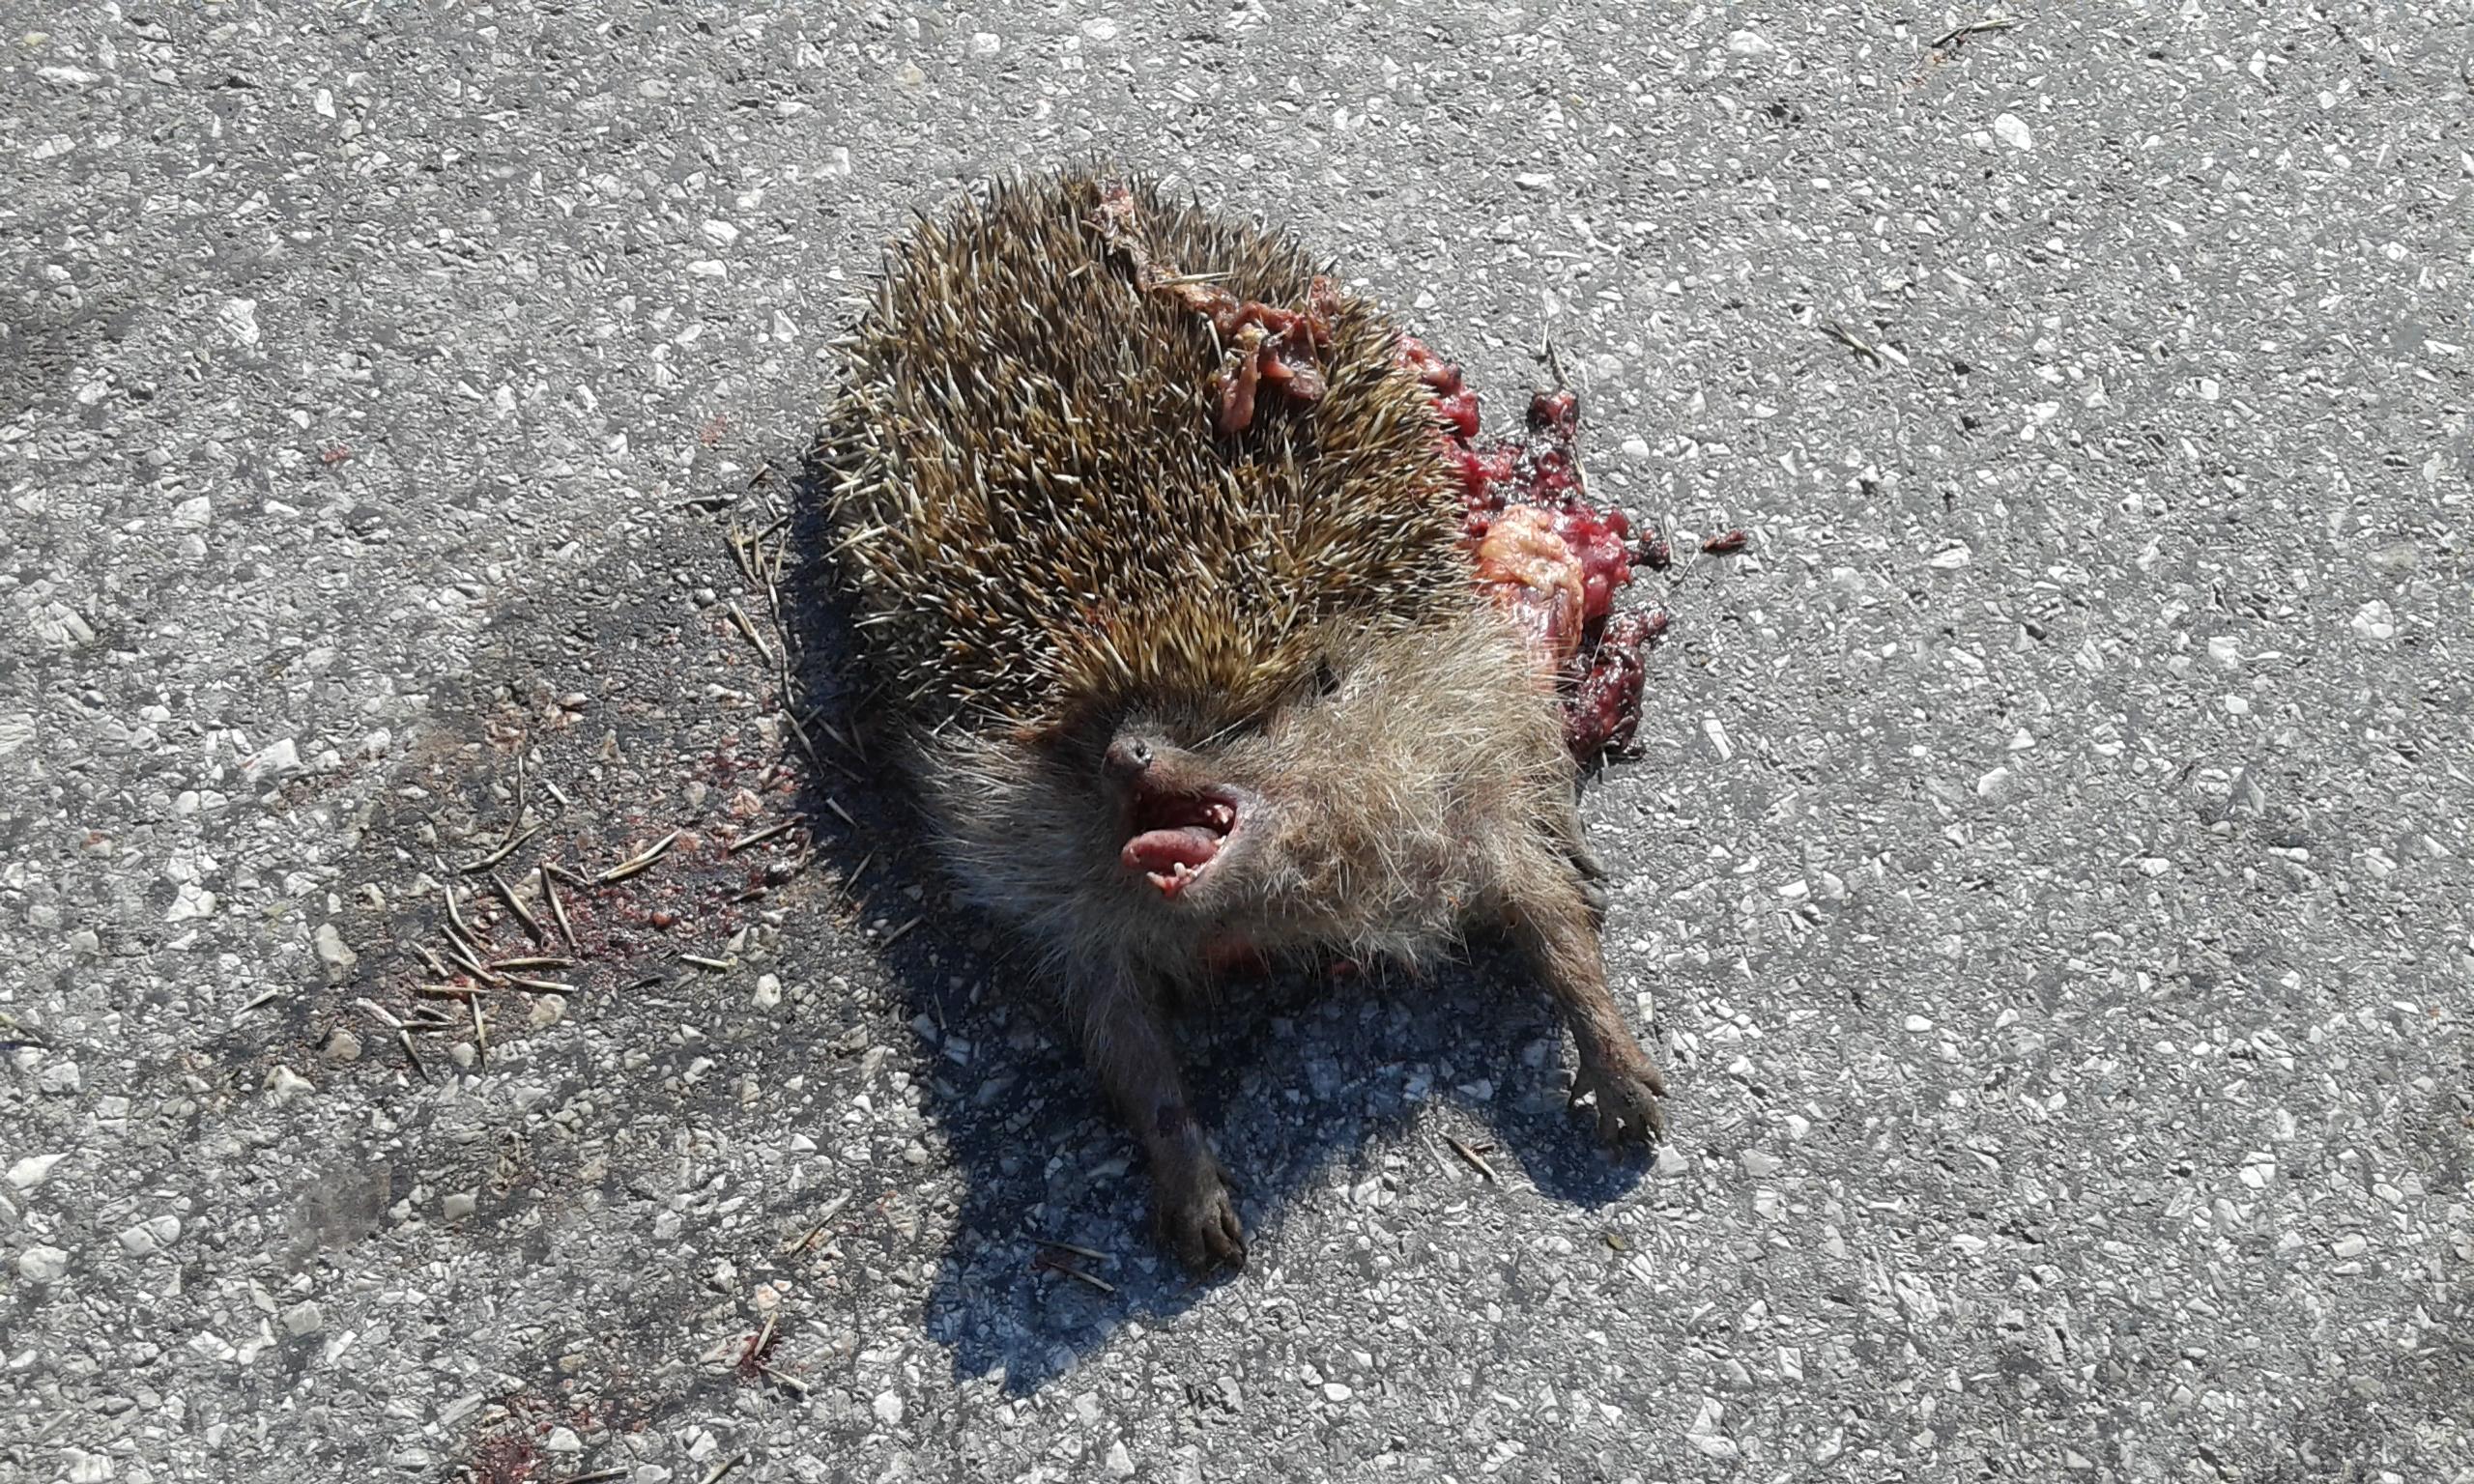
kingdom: Animalia
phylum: Chordata
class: Mammalia
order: Erinaceomorpha
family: Erinaceidae
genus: Erinaceus
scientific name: Erinaceus
